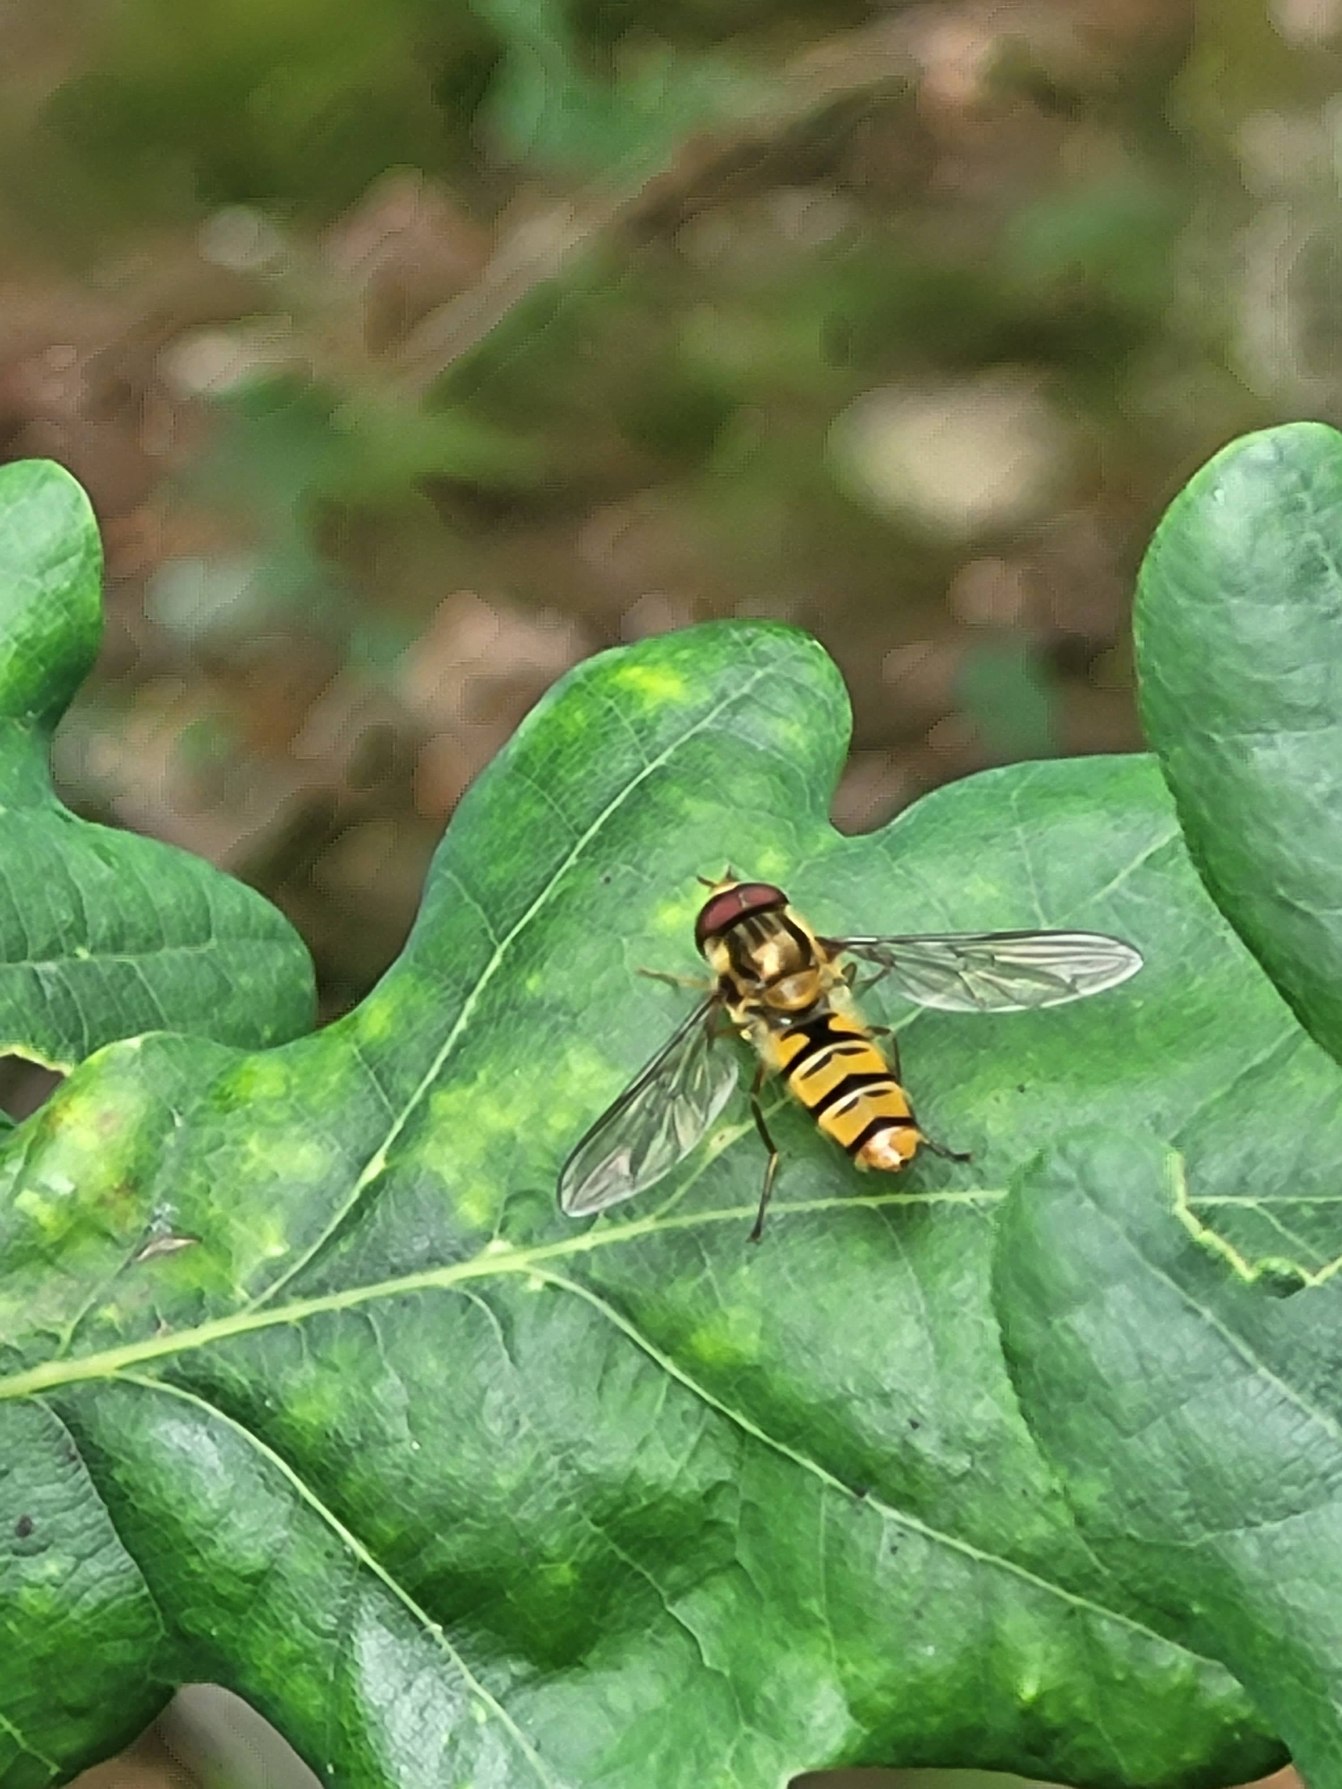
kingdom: Animalia
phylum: Arthropoda
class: Insecta
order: Diptera
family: Syrphidae
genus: Episyrphus
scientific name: Episyrphus balteatus
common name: Dobbeltbåndet svirreflue
